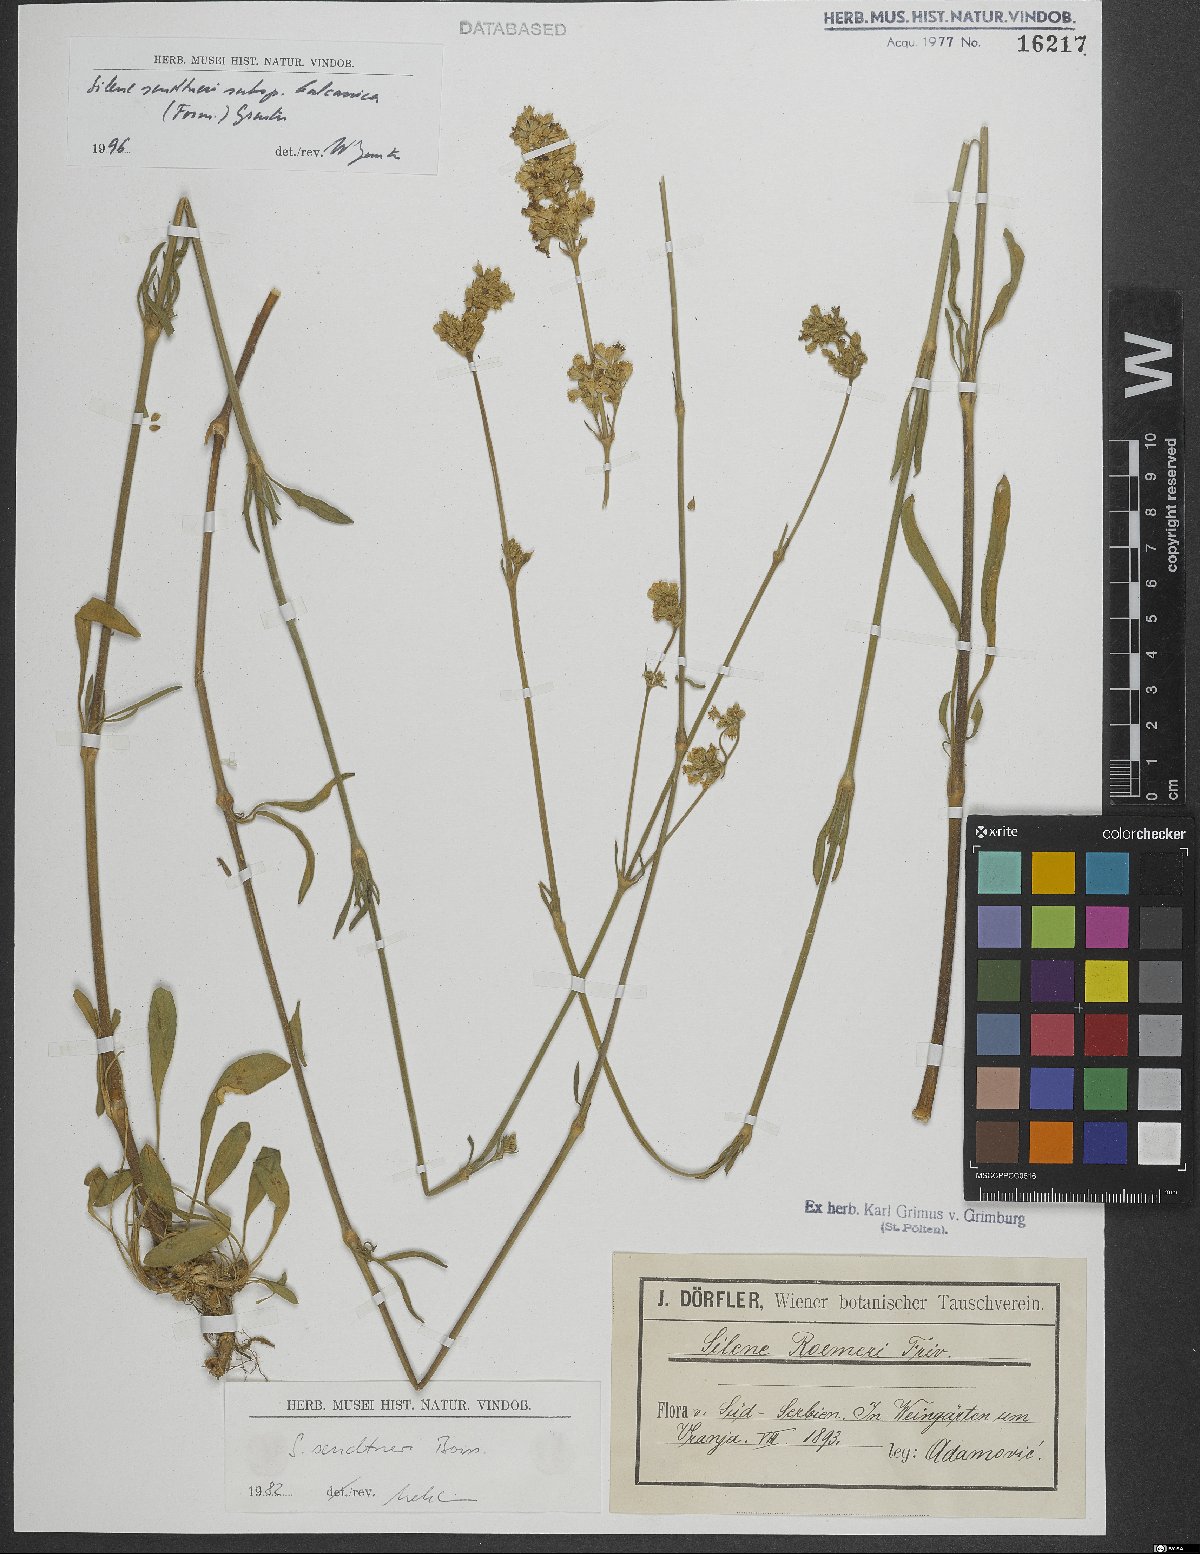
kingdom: Plantae
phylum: Tracheophyta
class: Magnoliopsida
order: Caryophyllales
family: Caryophyllaceae
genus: Silene
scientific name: Silene sendtneri
